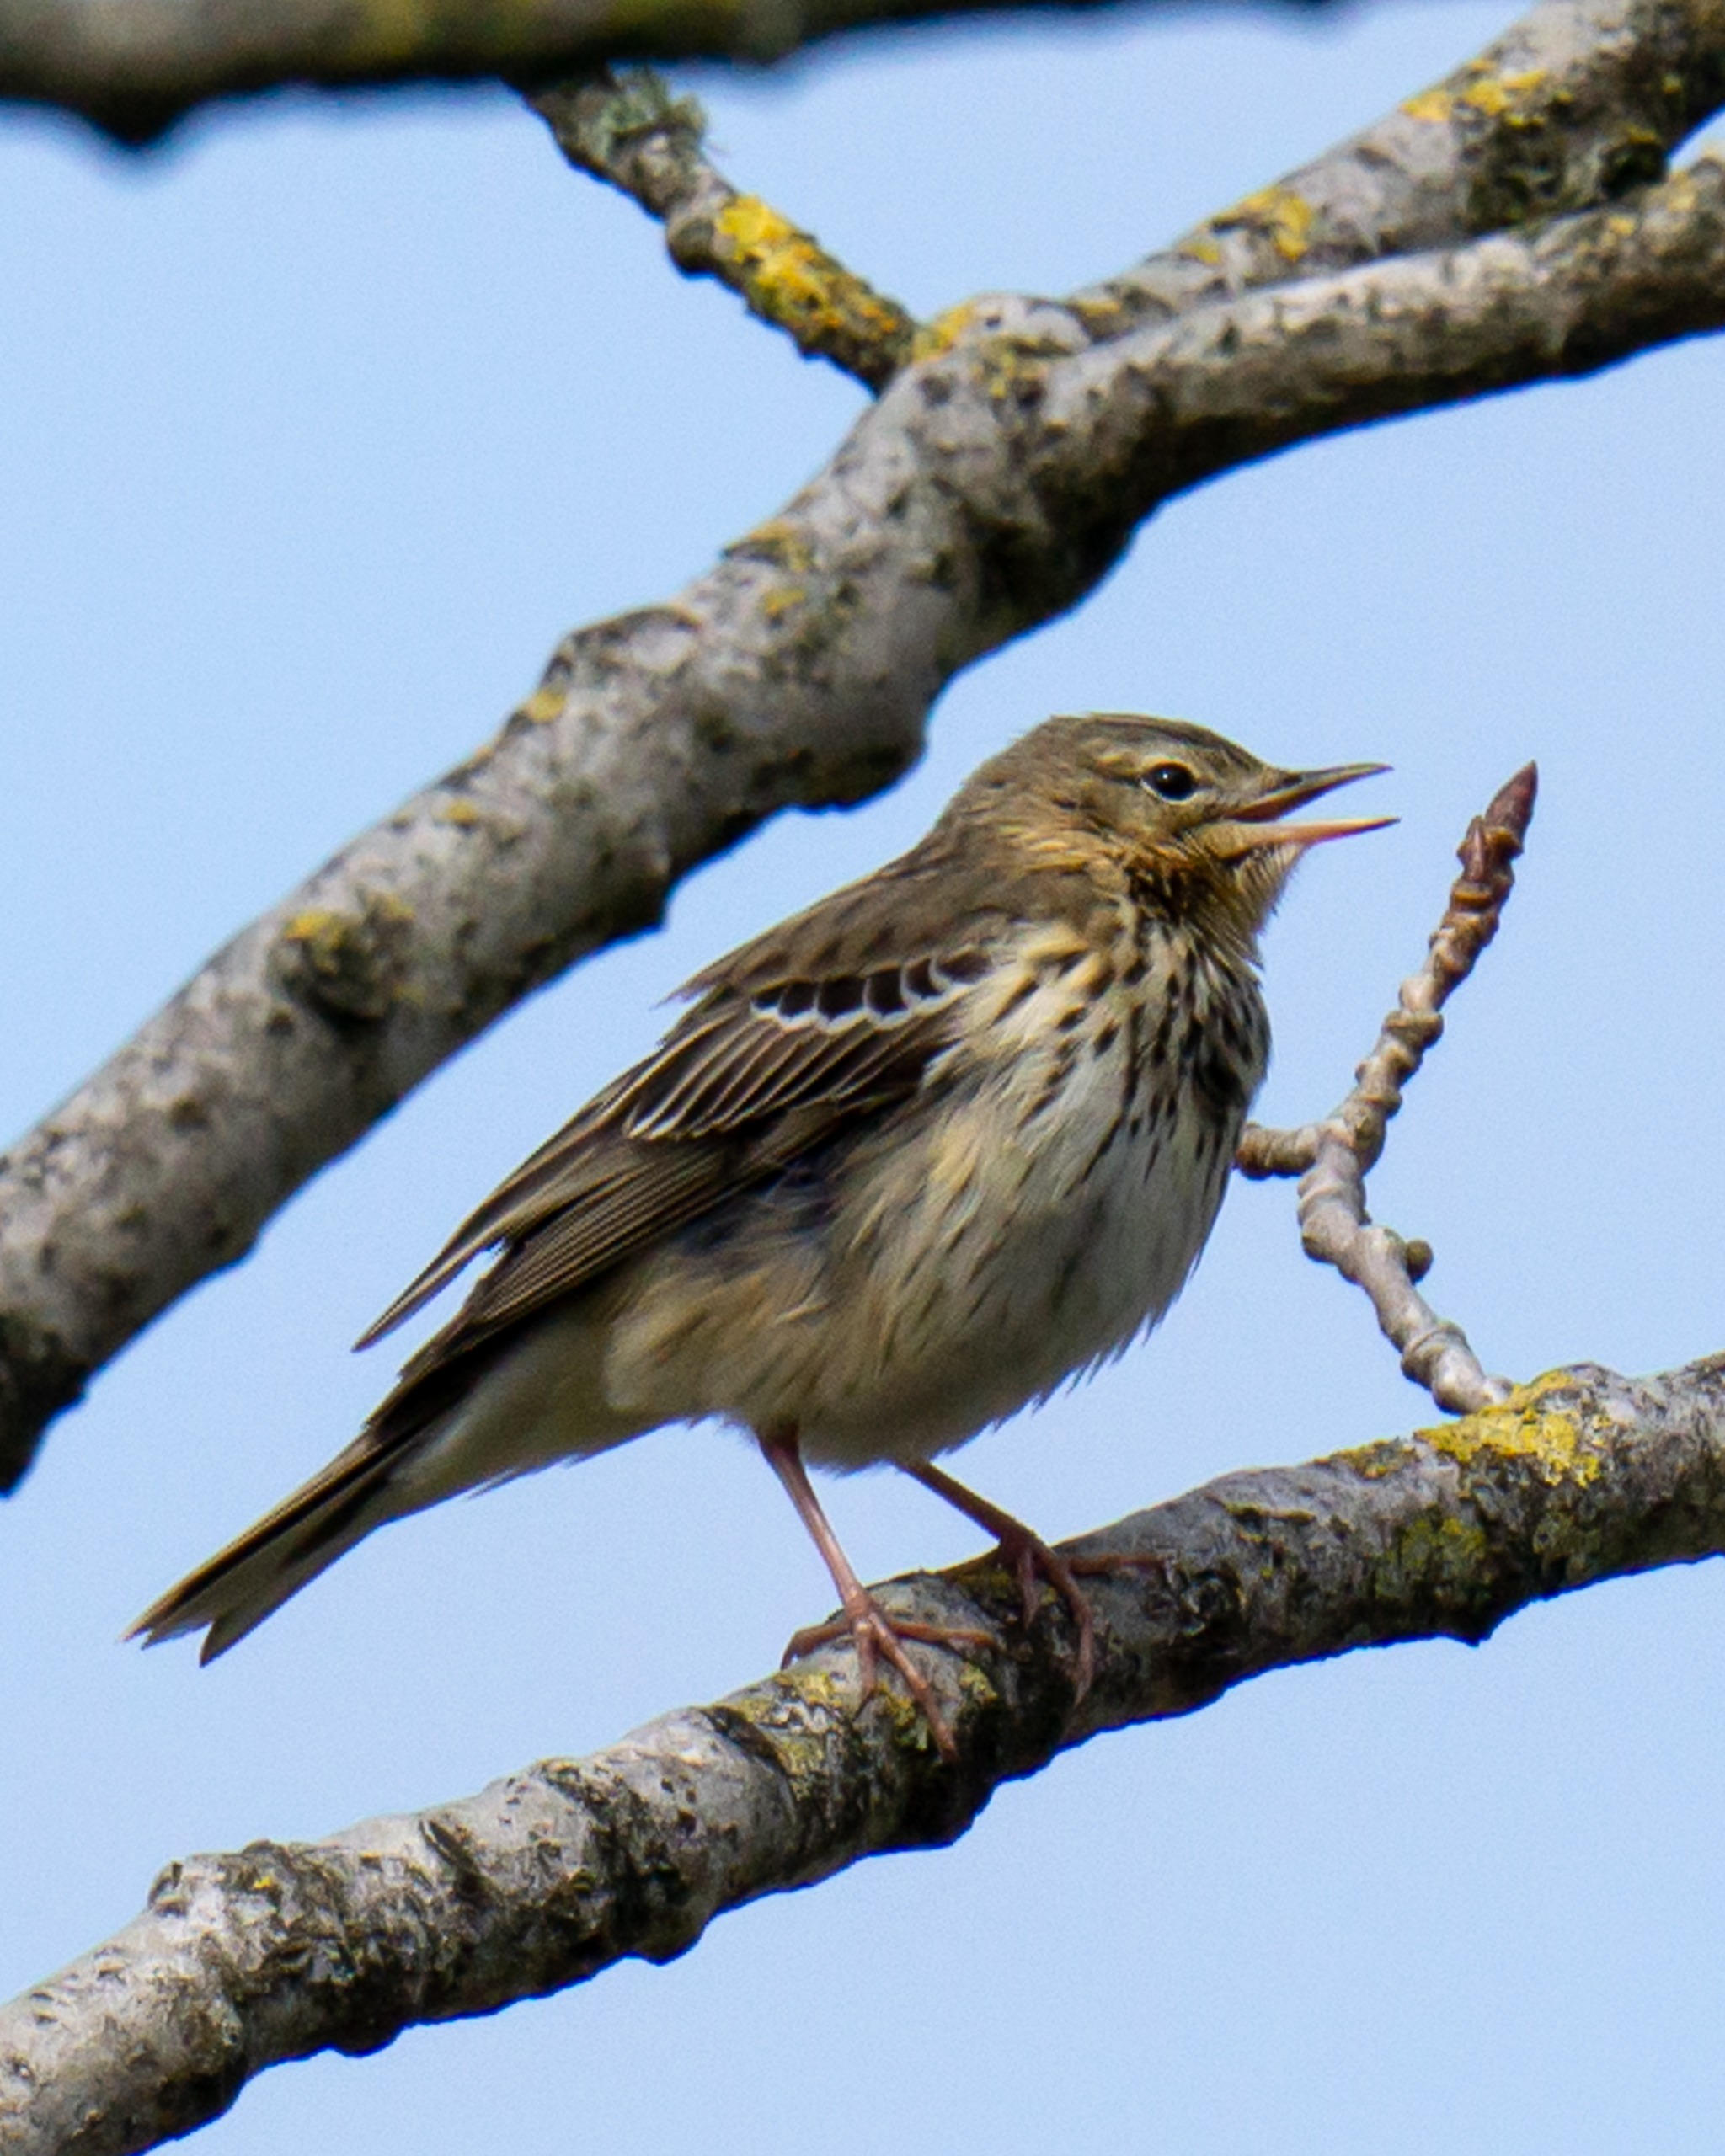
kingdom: Animalia
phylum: Chordata
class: Aves
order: Passeriformes
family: Motacillidae
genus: Anthus
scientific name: Anthus trivialis
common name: Skovpiber
